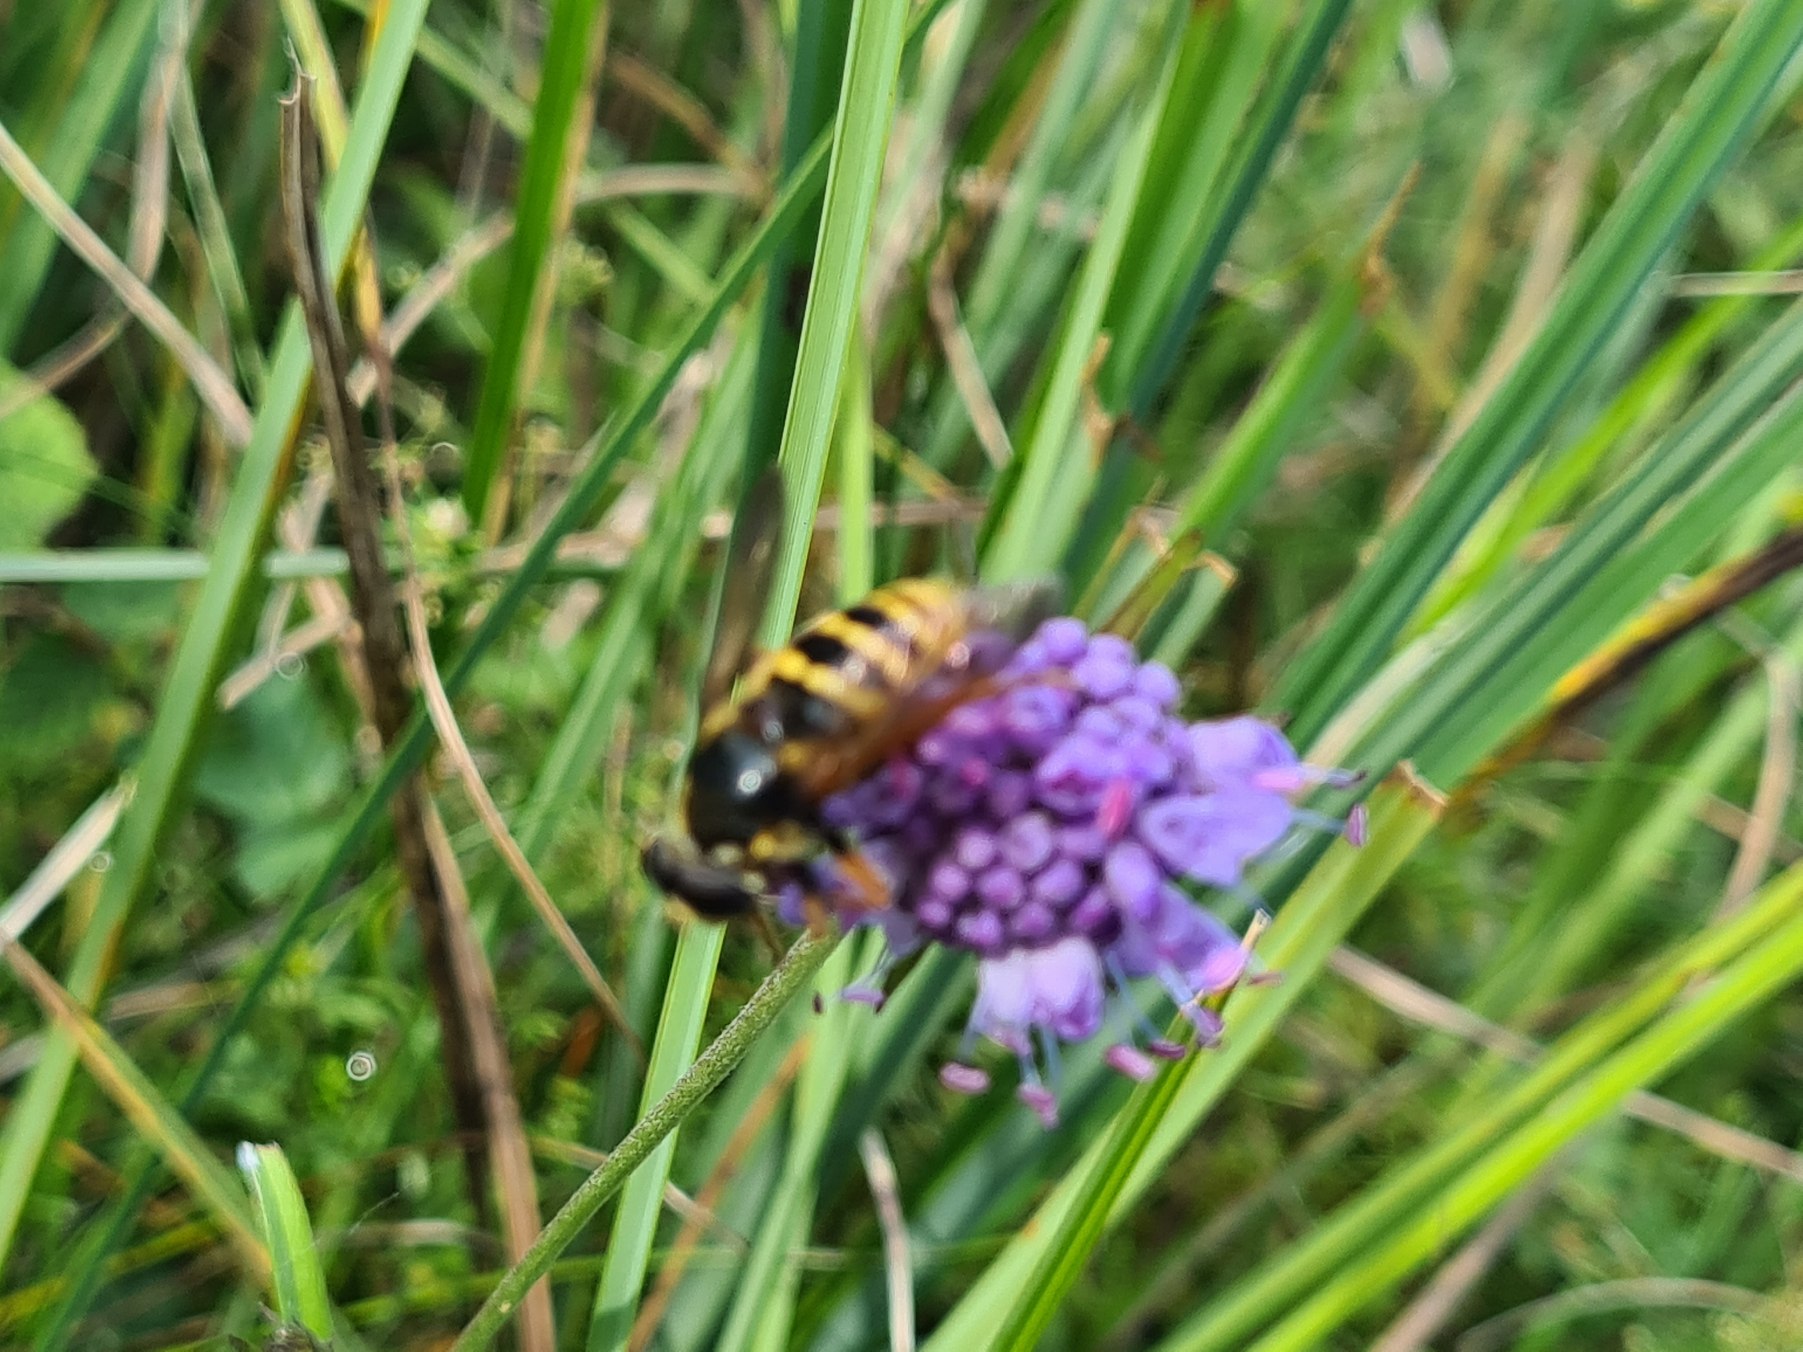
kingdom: Animalia
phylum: Arthropoda
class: Insecta
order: Diptera
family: Syrphidae
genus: Sericomyia
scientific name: Sericomyia silentis
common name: Tørve-silkesvirreflue
